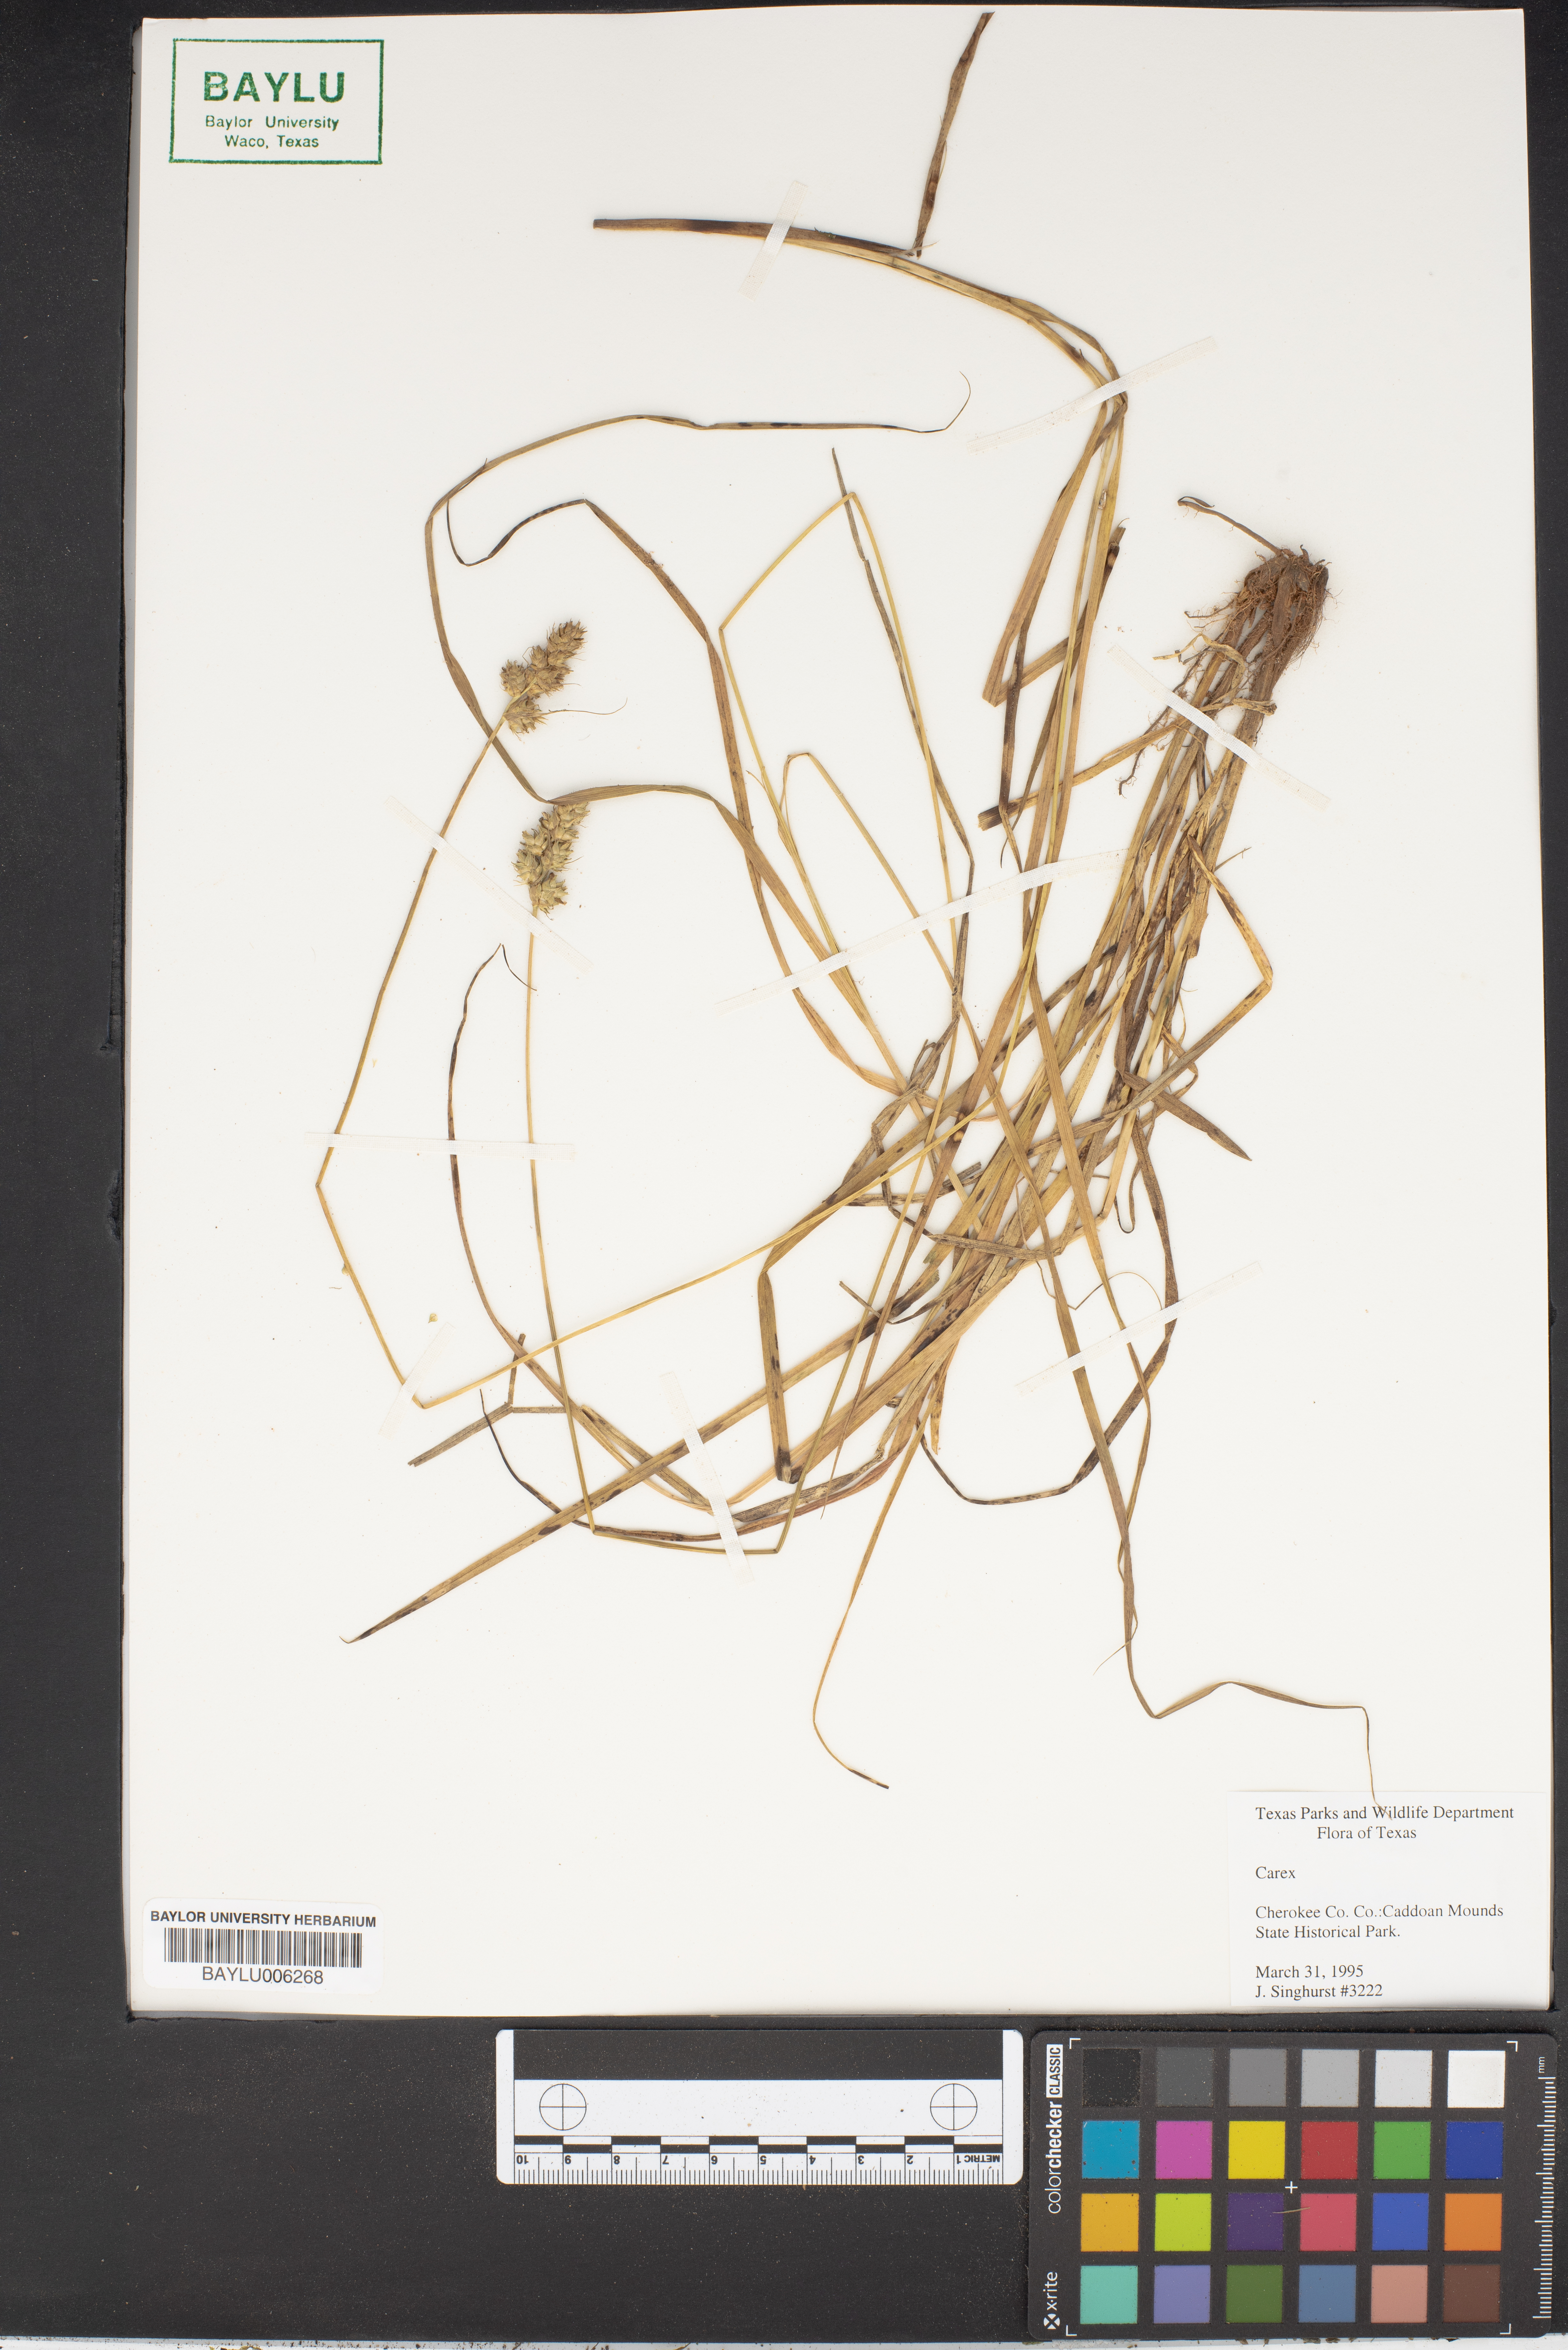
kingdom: Plantae
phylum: Tracheophyta
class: Liliopsida
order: Poales
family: Cyperaceae
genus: Carex
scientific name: Carex
